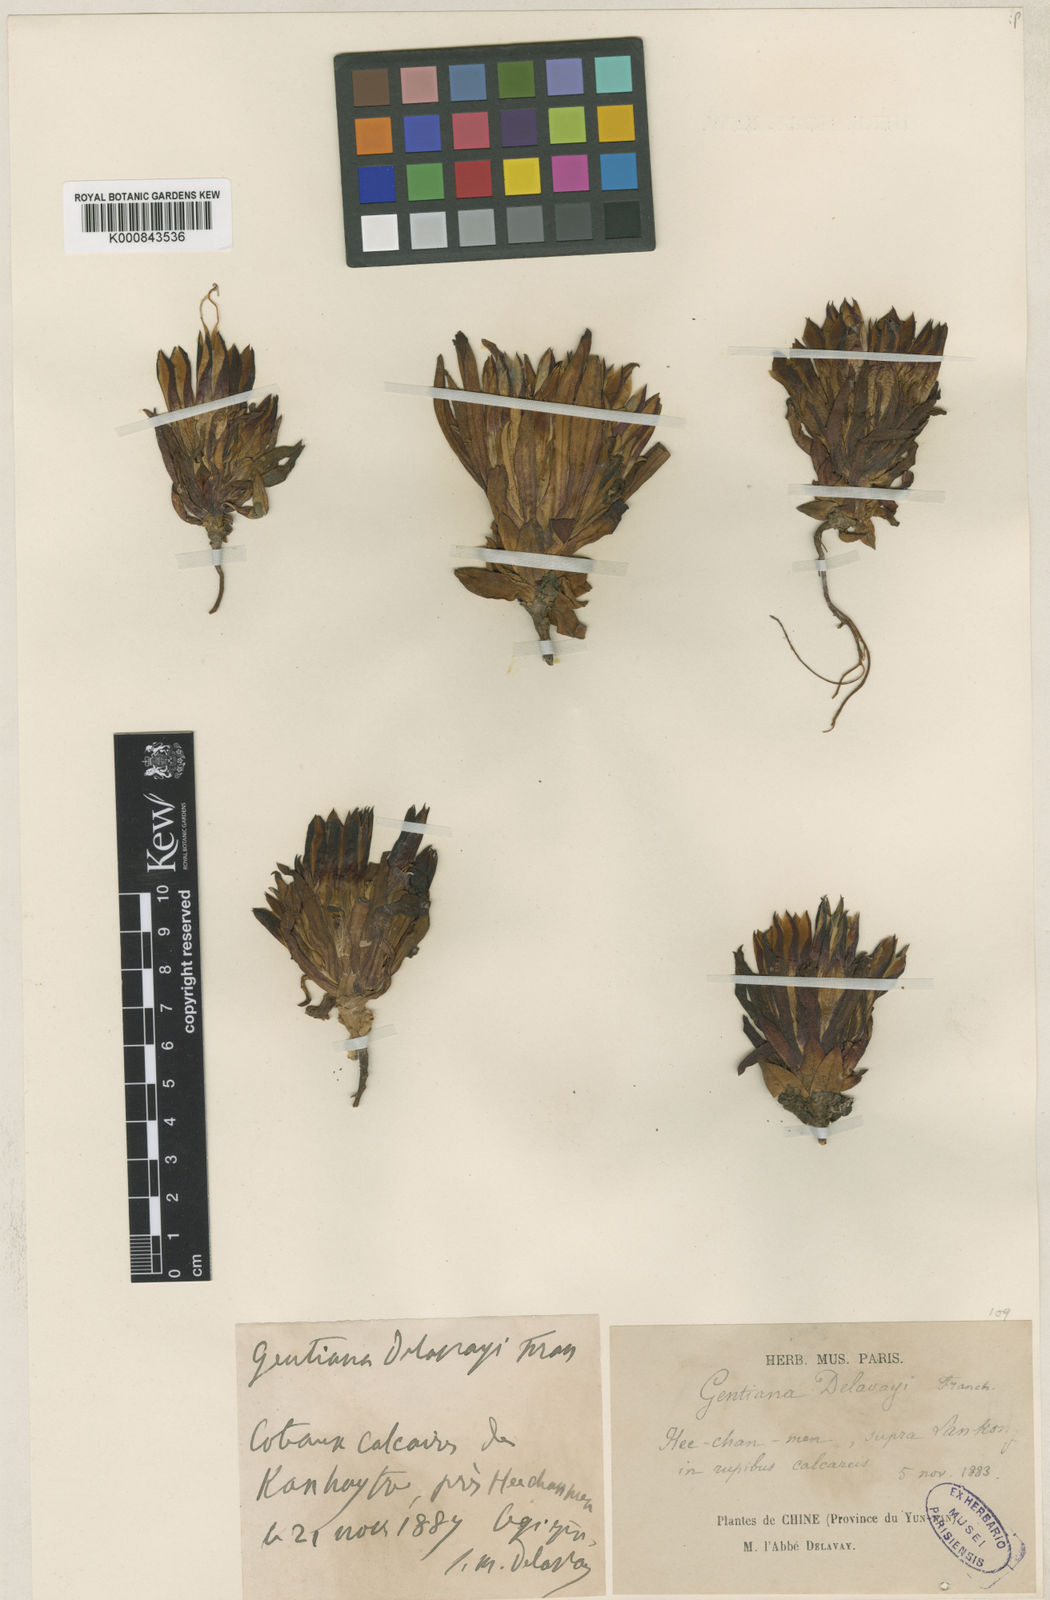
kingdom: Plantae
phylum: Tracheophyta
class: Magnoliopsida
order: Gentianales
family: Gentianaceae
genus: Gentiana
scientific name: Gentiana delavayi
